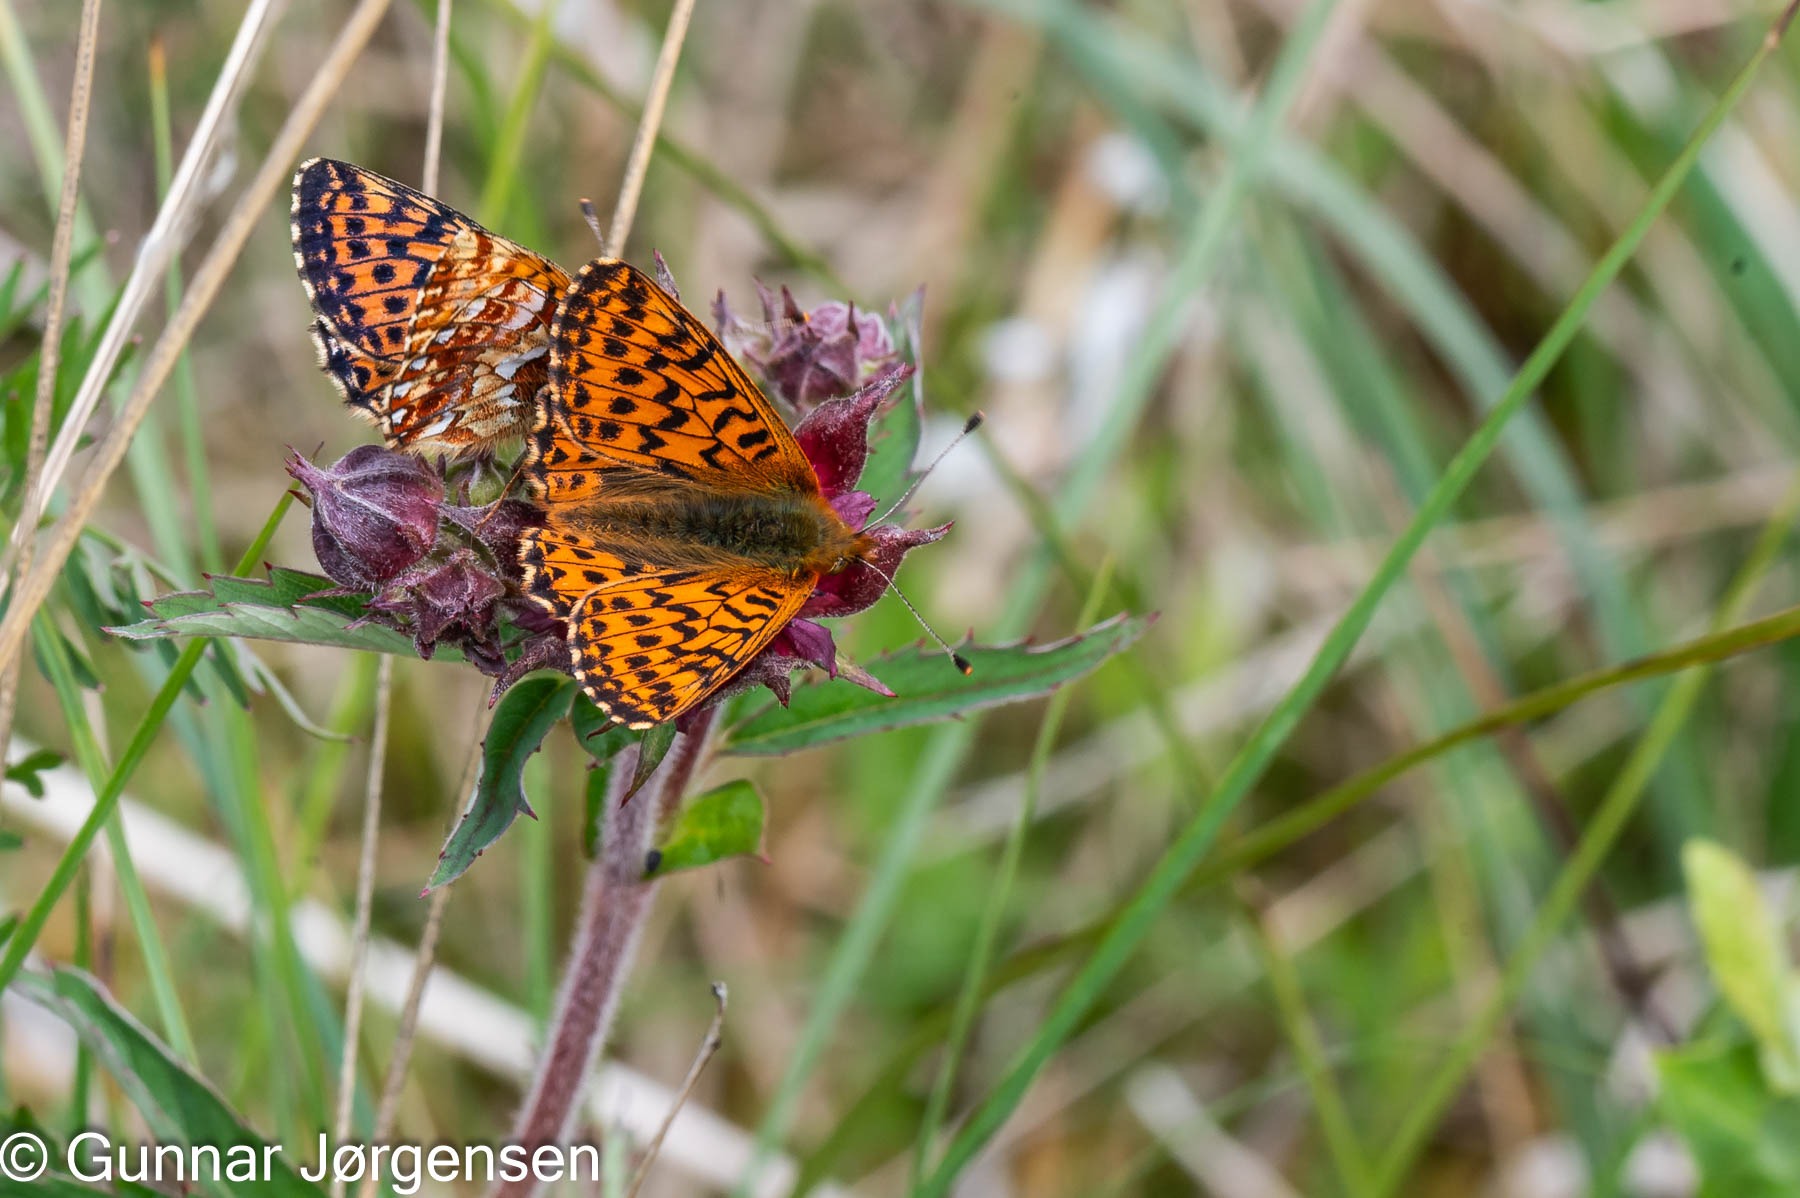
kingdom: Animalia
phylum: Arthropoda
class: Insecta
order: Lepidoptera
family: Nymphalidae
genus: Boloria
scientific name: Boloria aquilonaris
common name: Moseperlemorsommerfugl
